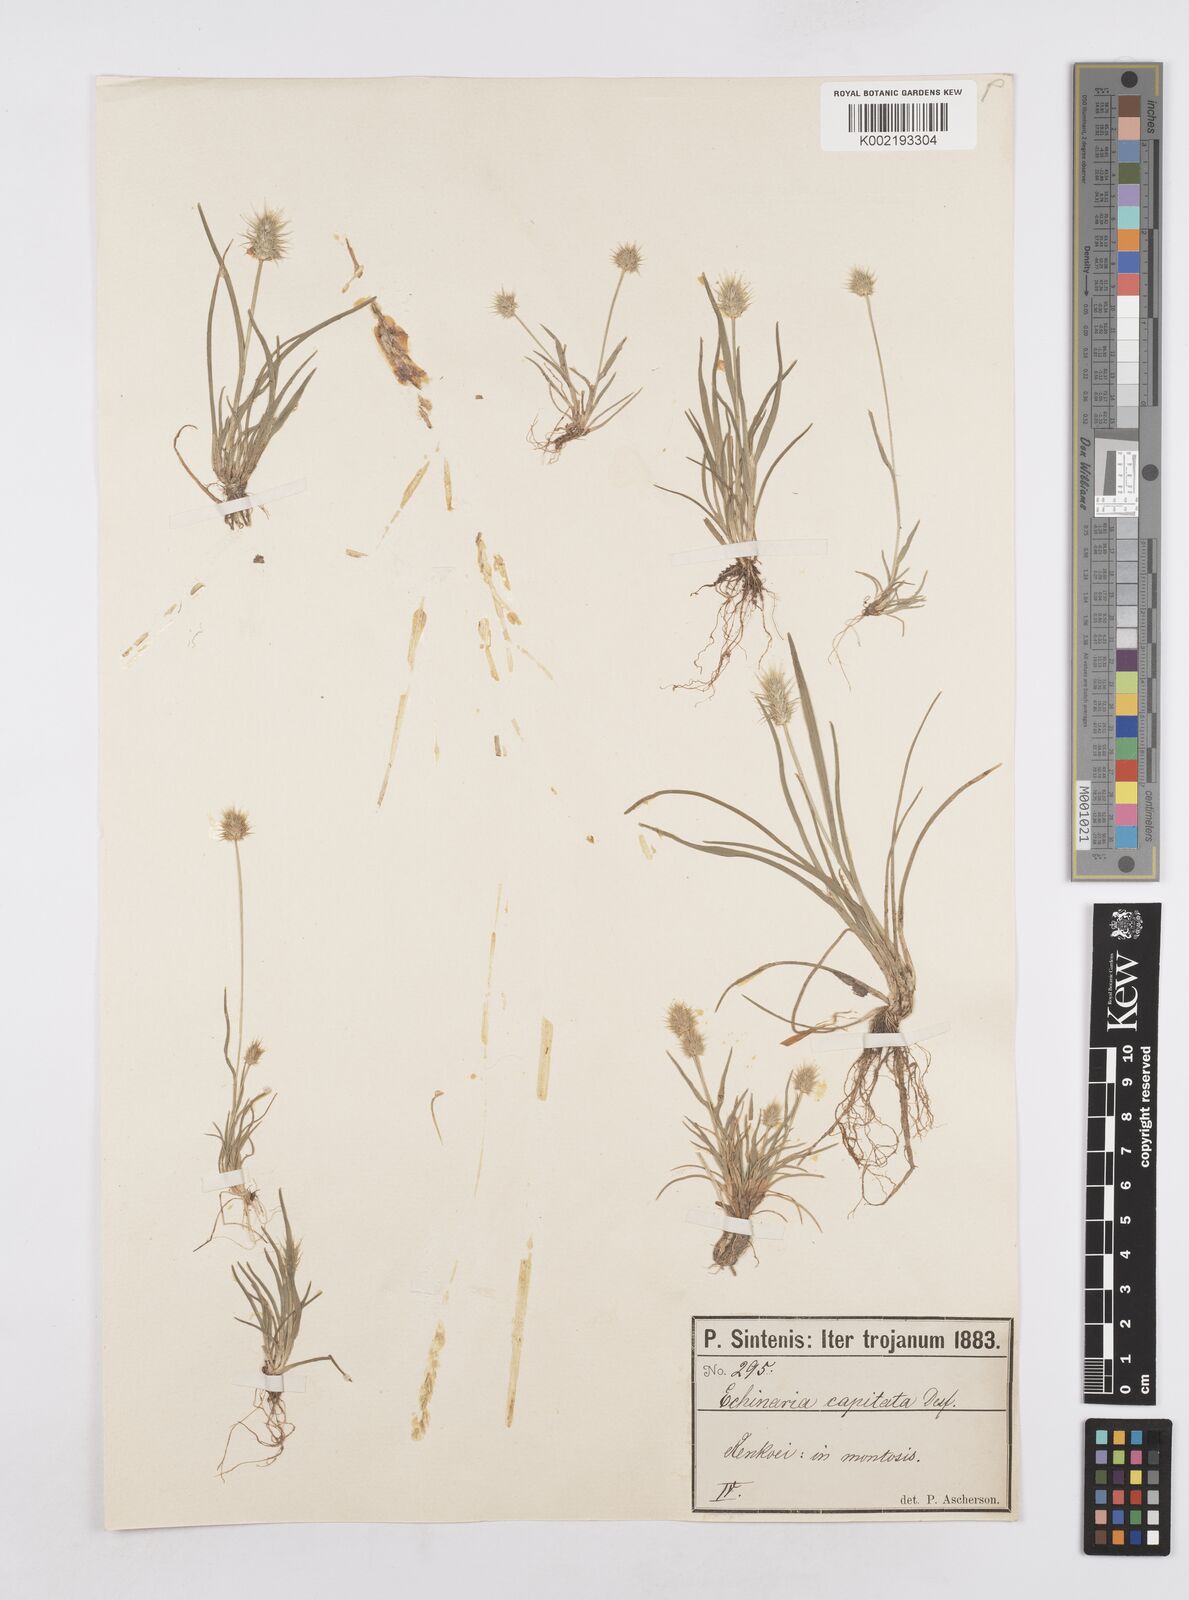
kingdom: Plantae
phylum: Tracheophyta
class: Liliopsida
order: Poales
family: Poaceae
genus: Echinaria
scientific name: Echinaria capitata
